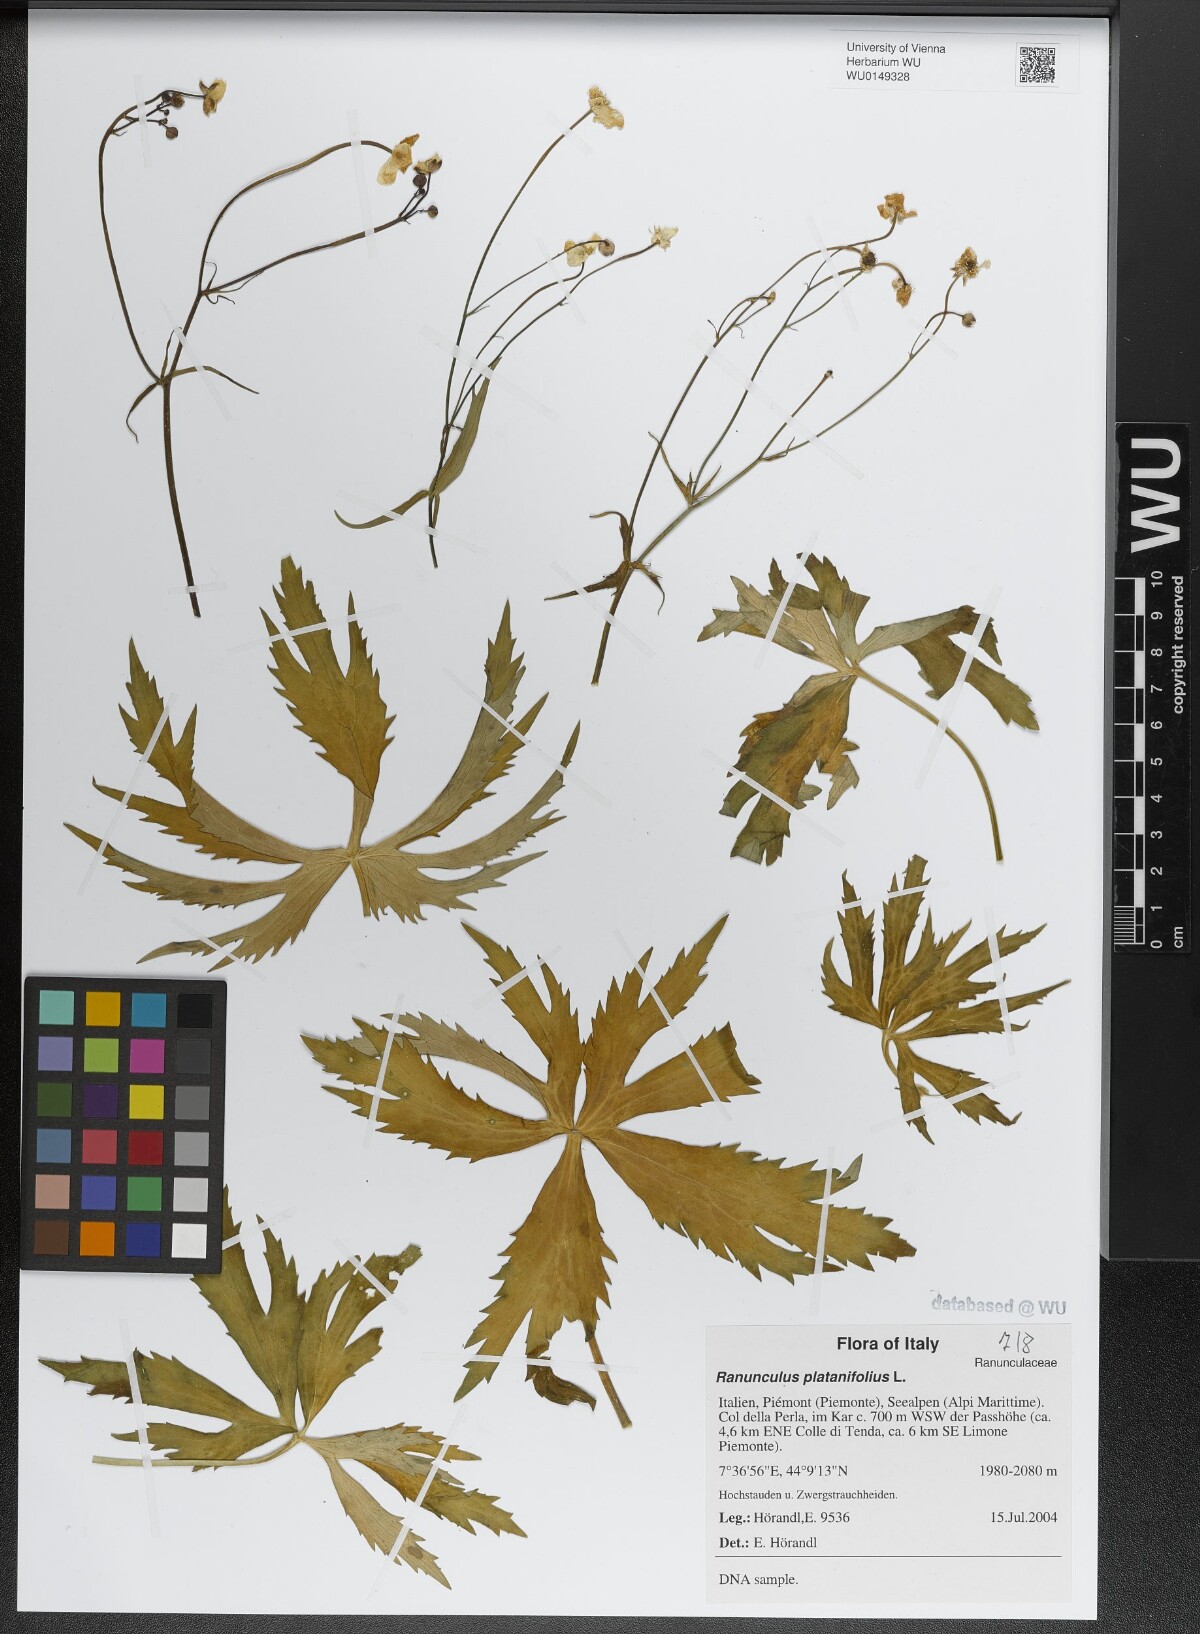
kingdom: Plantae
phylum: Tracheophyta
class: Magnoliopsida
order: Ranunculales
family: Ranunculaceae
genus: Ranunculus
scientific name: Ranunculus platanifolius
